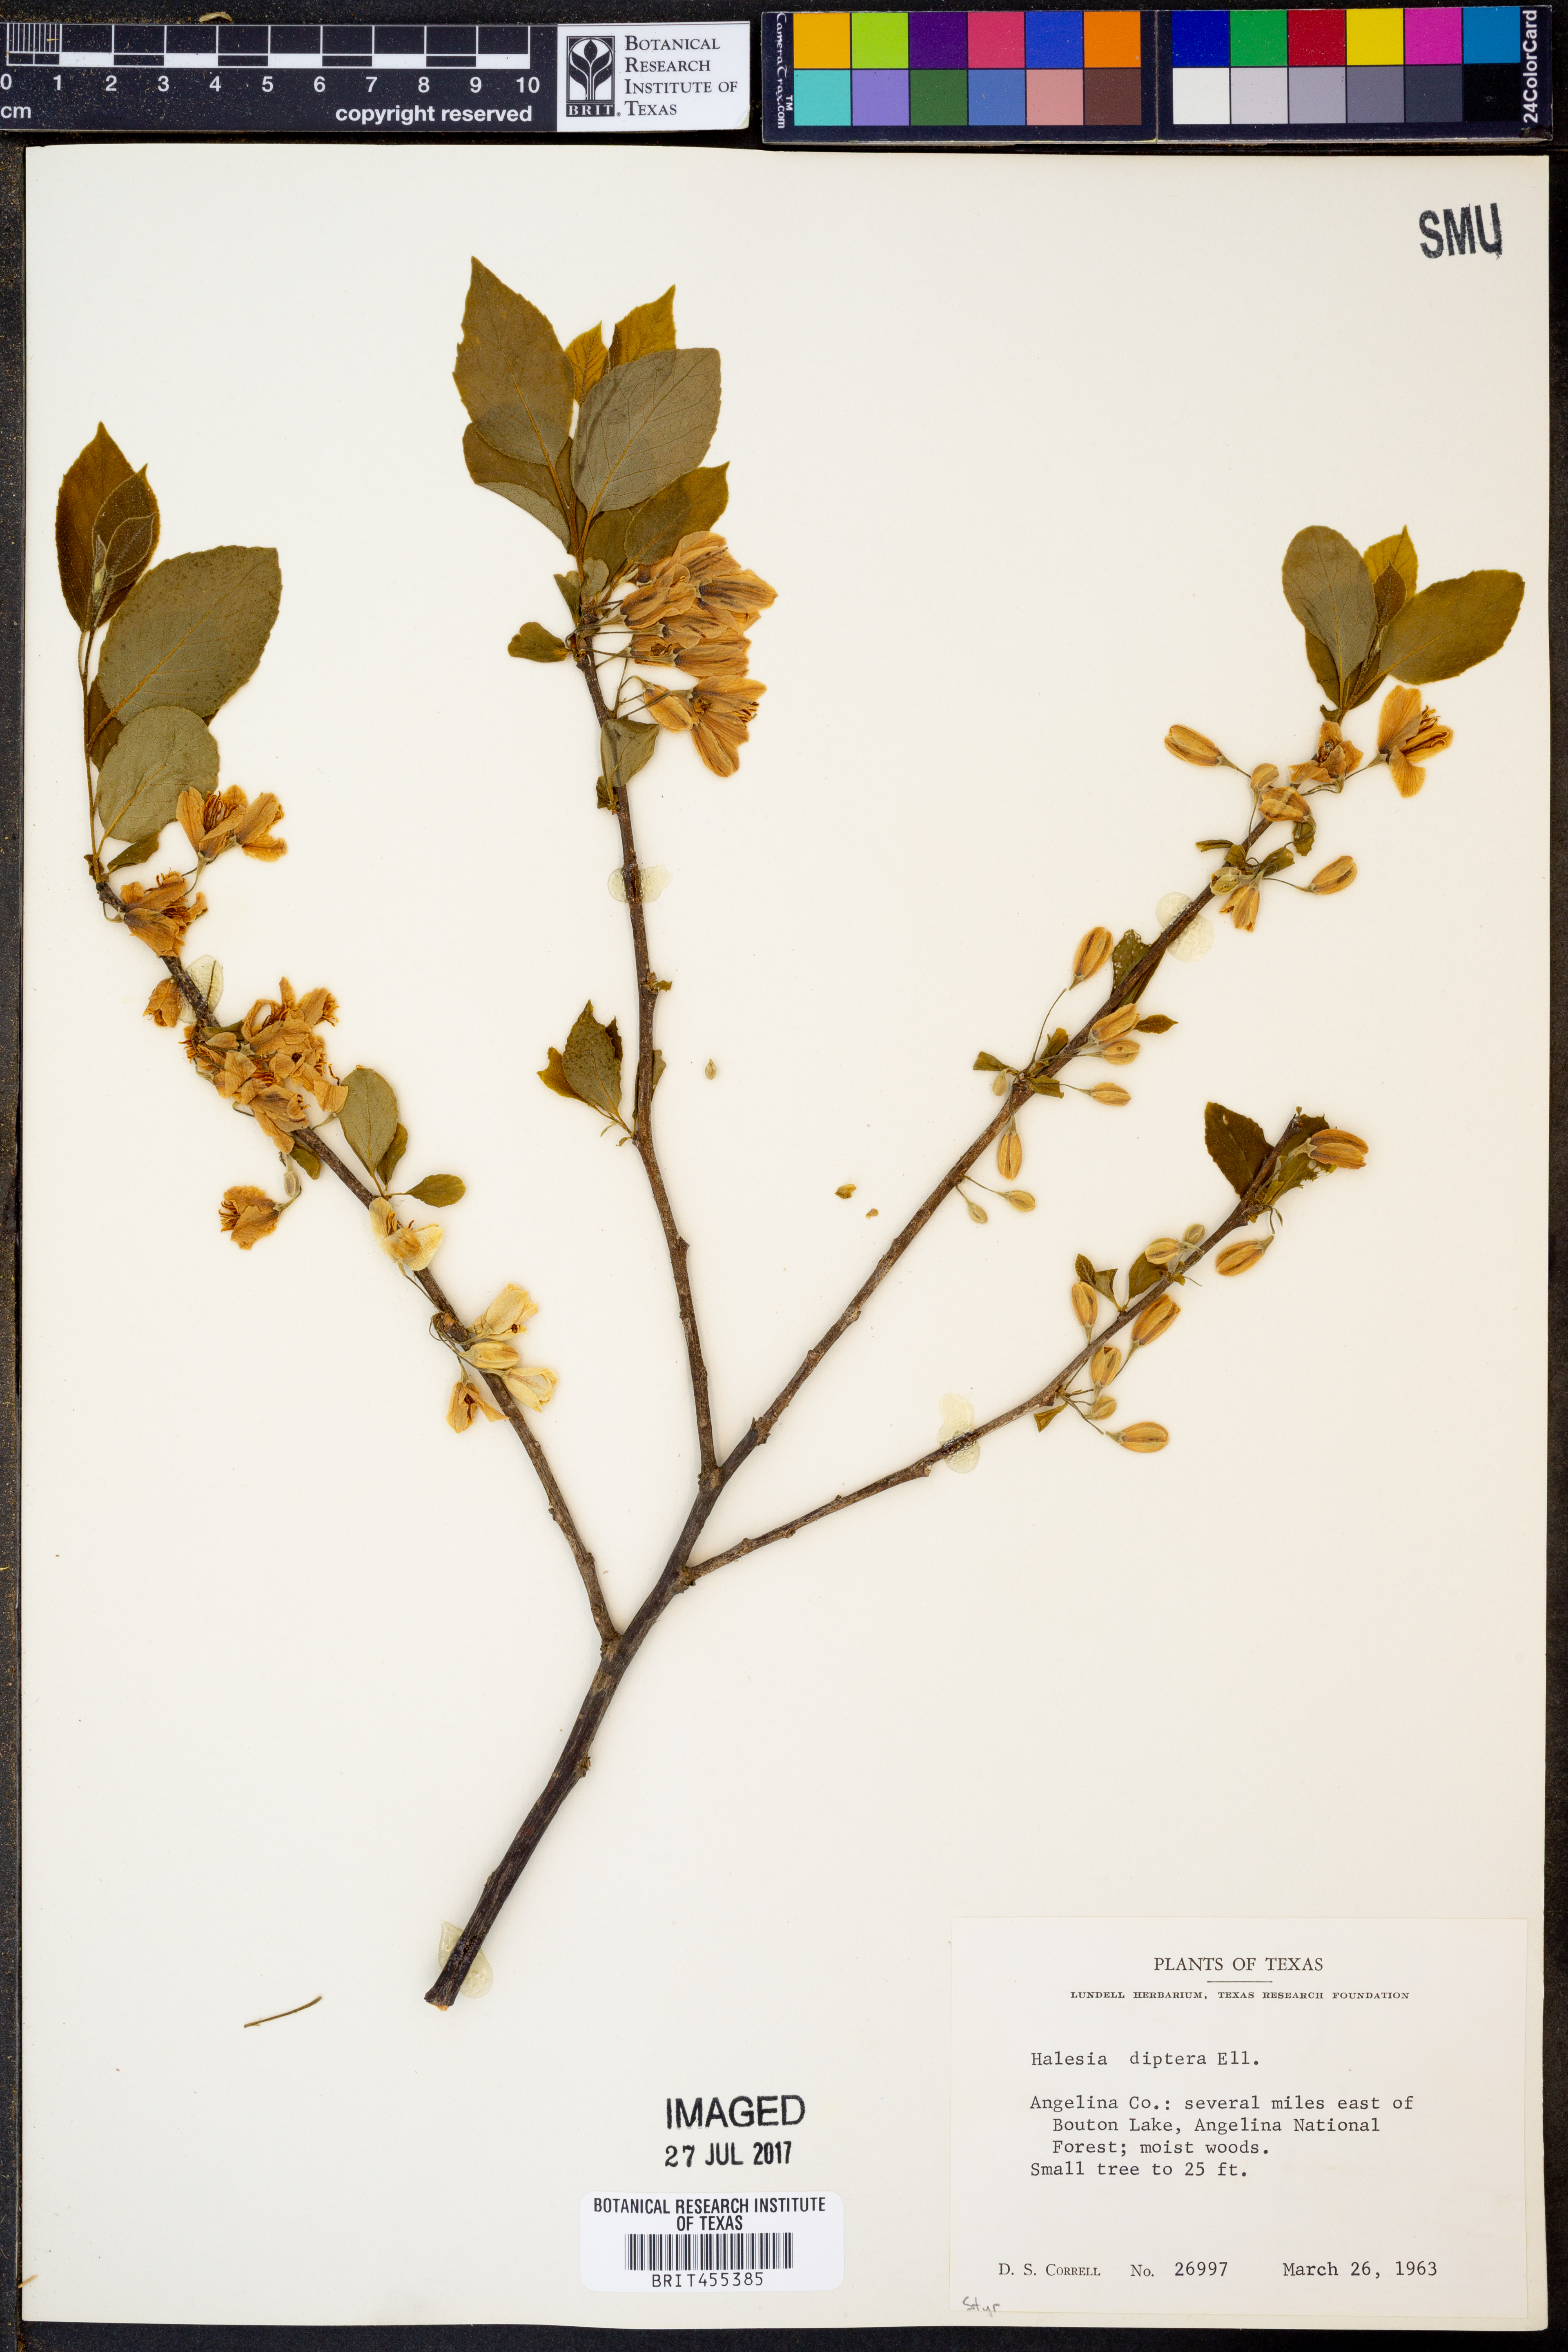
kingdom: Plantae
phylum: Tracheophyta
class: Magnoliopsida
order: Ericales
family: Styracaceae
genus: Halesia
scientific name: Halesia diptera
